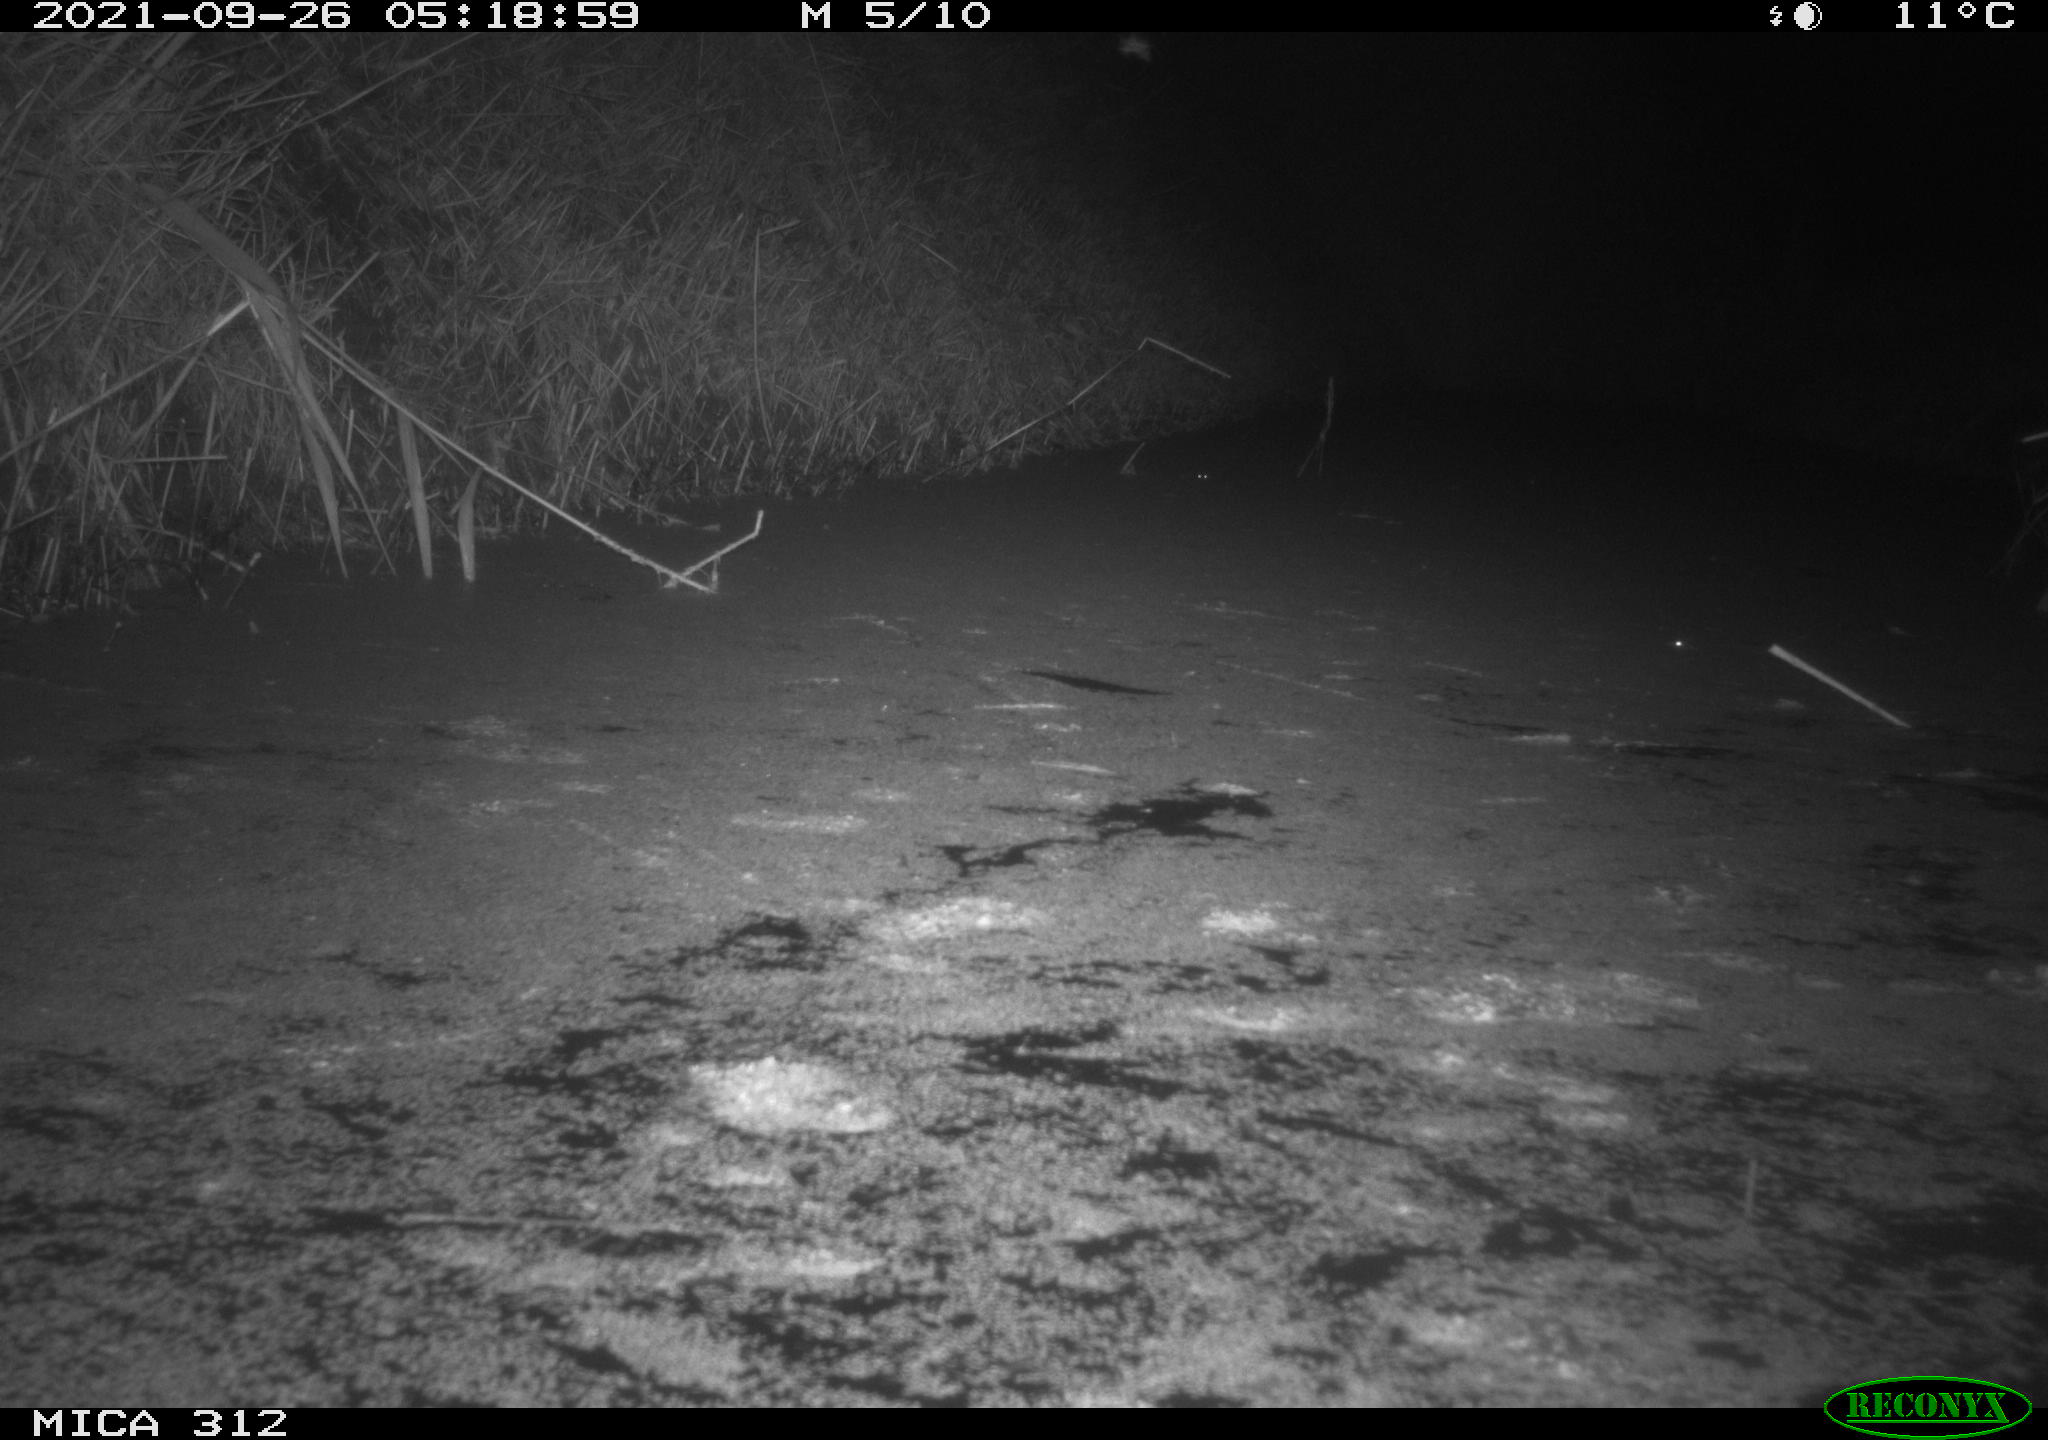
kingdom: Animalia
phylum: Chordata
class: Mammalia
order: Rodentia
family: Muridae
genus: Rattus
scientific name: Rattus norvegicus
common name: Brown rat
